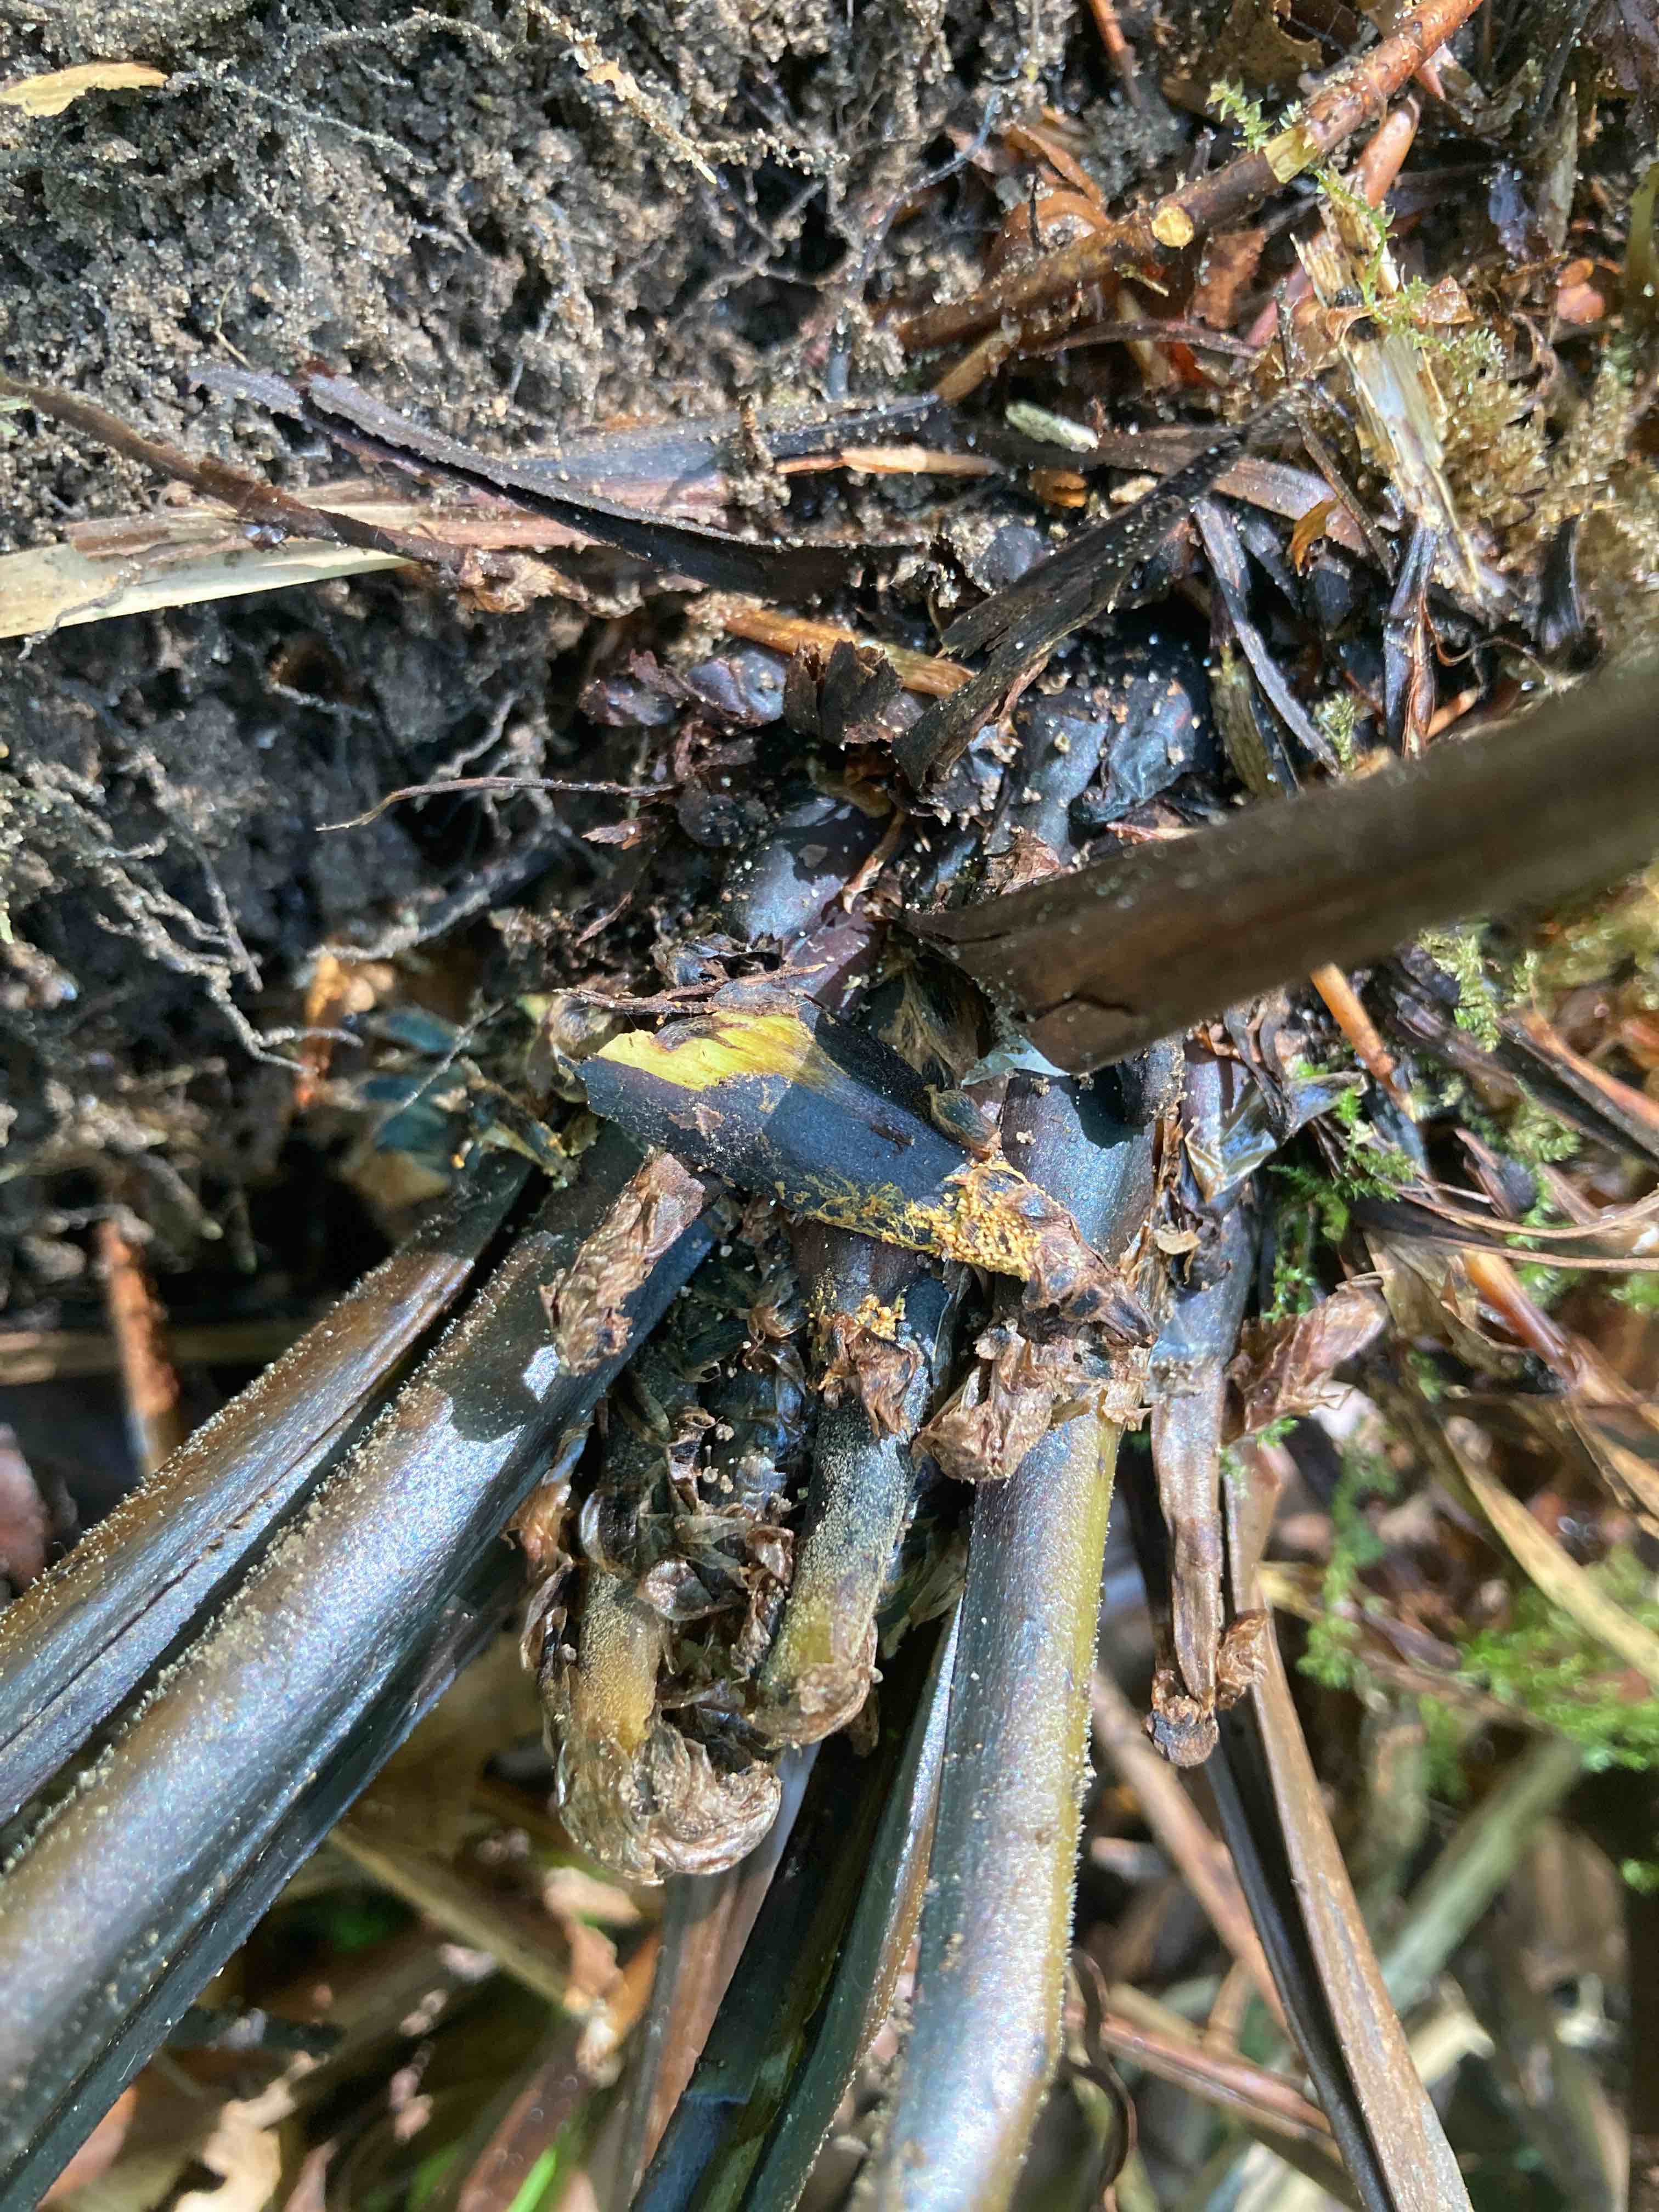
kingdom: Fungi
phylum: Basidiomycota
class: Agaricomycetes
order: Agaricales
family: Niaceae
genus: Woldmaria
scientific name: Woldmaria filicina
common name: bregnerør
